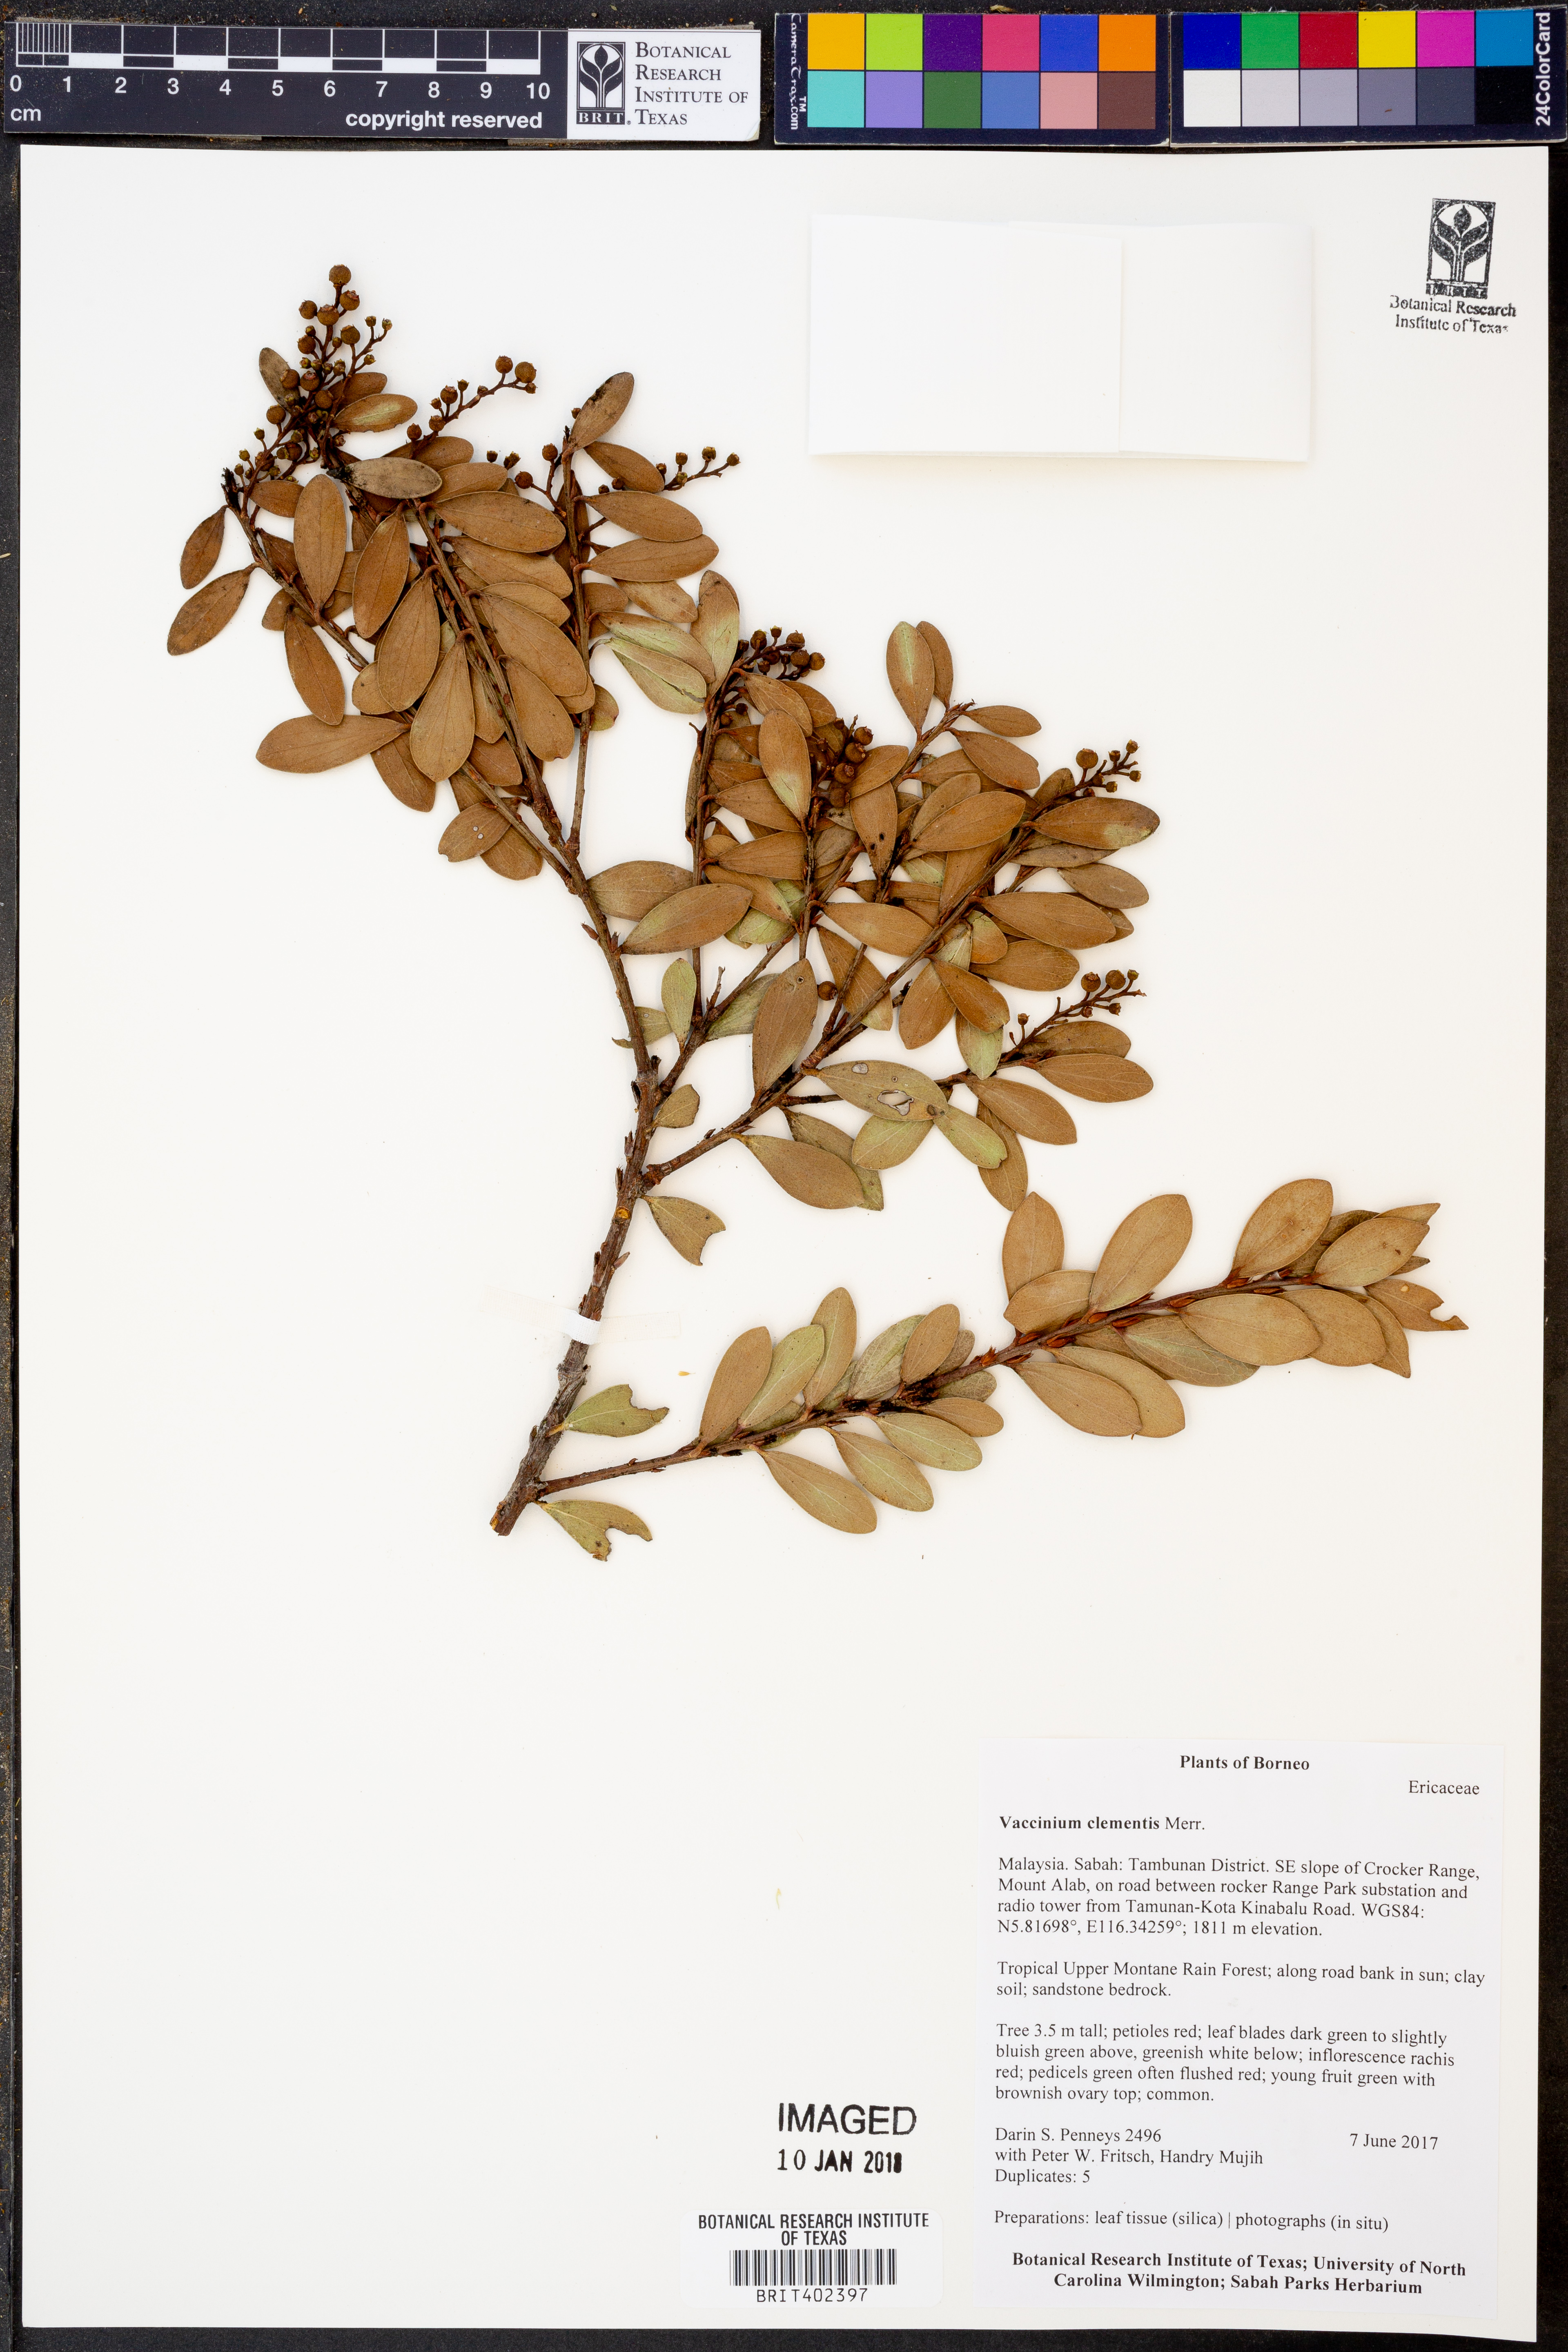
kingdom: Plantae
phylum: Tracheophyta
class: Magnoliopsida
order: Ericales
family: Ericaceae
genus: Vaccinium
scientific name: Vaccinium clementis
